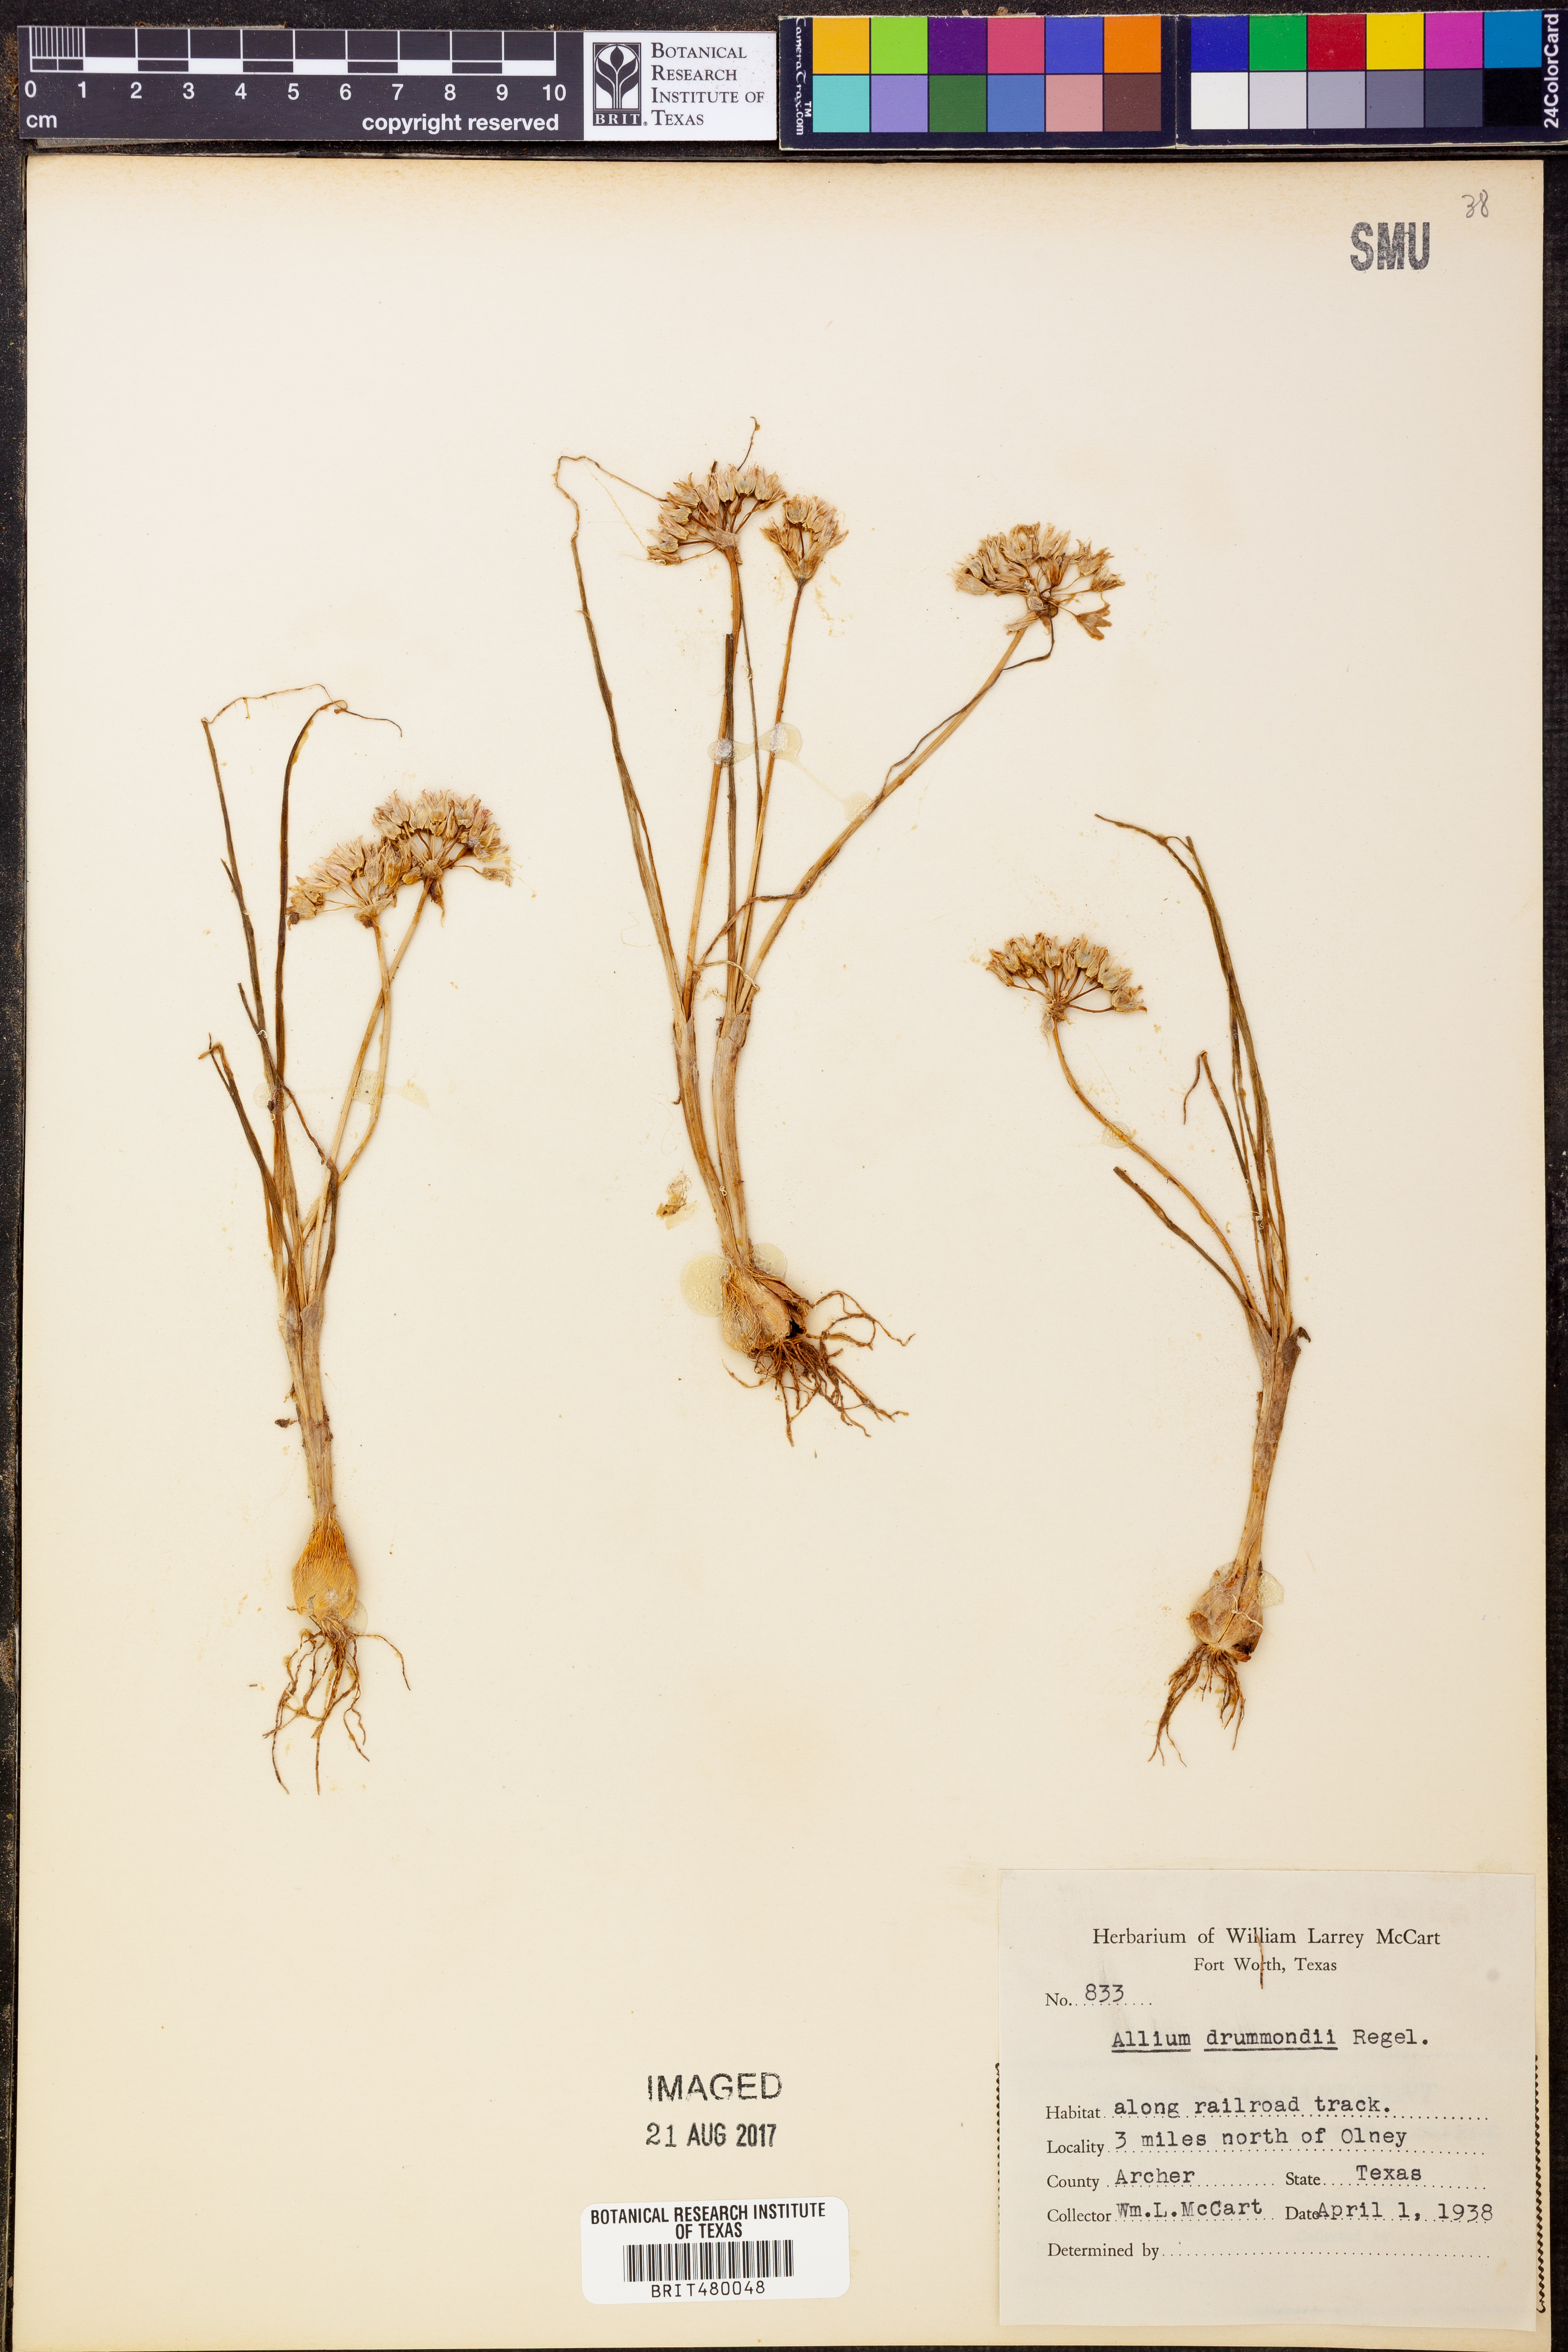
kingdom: Plantae
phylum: Tracheophyta
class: Liliopsida
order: Asparagales
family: Amaryllidaceae
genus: Allium
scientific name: Allium drummondii
